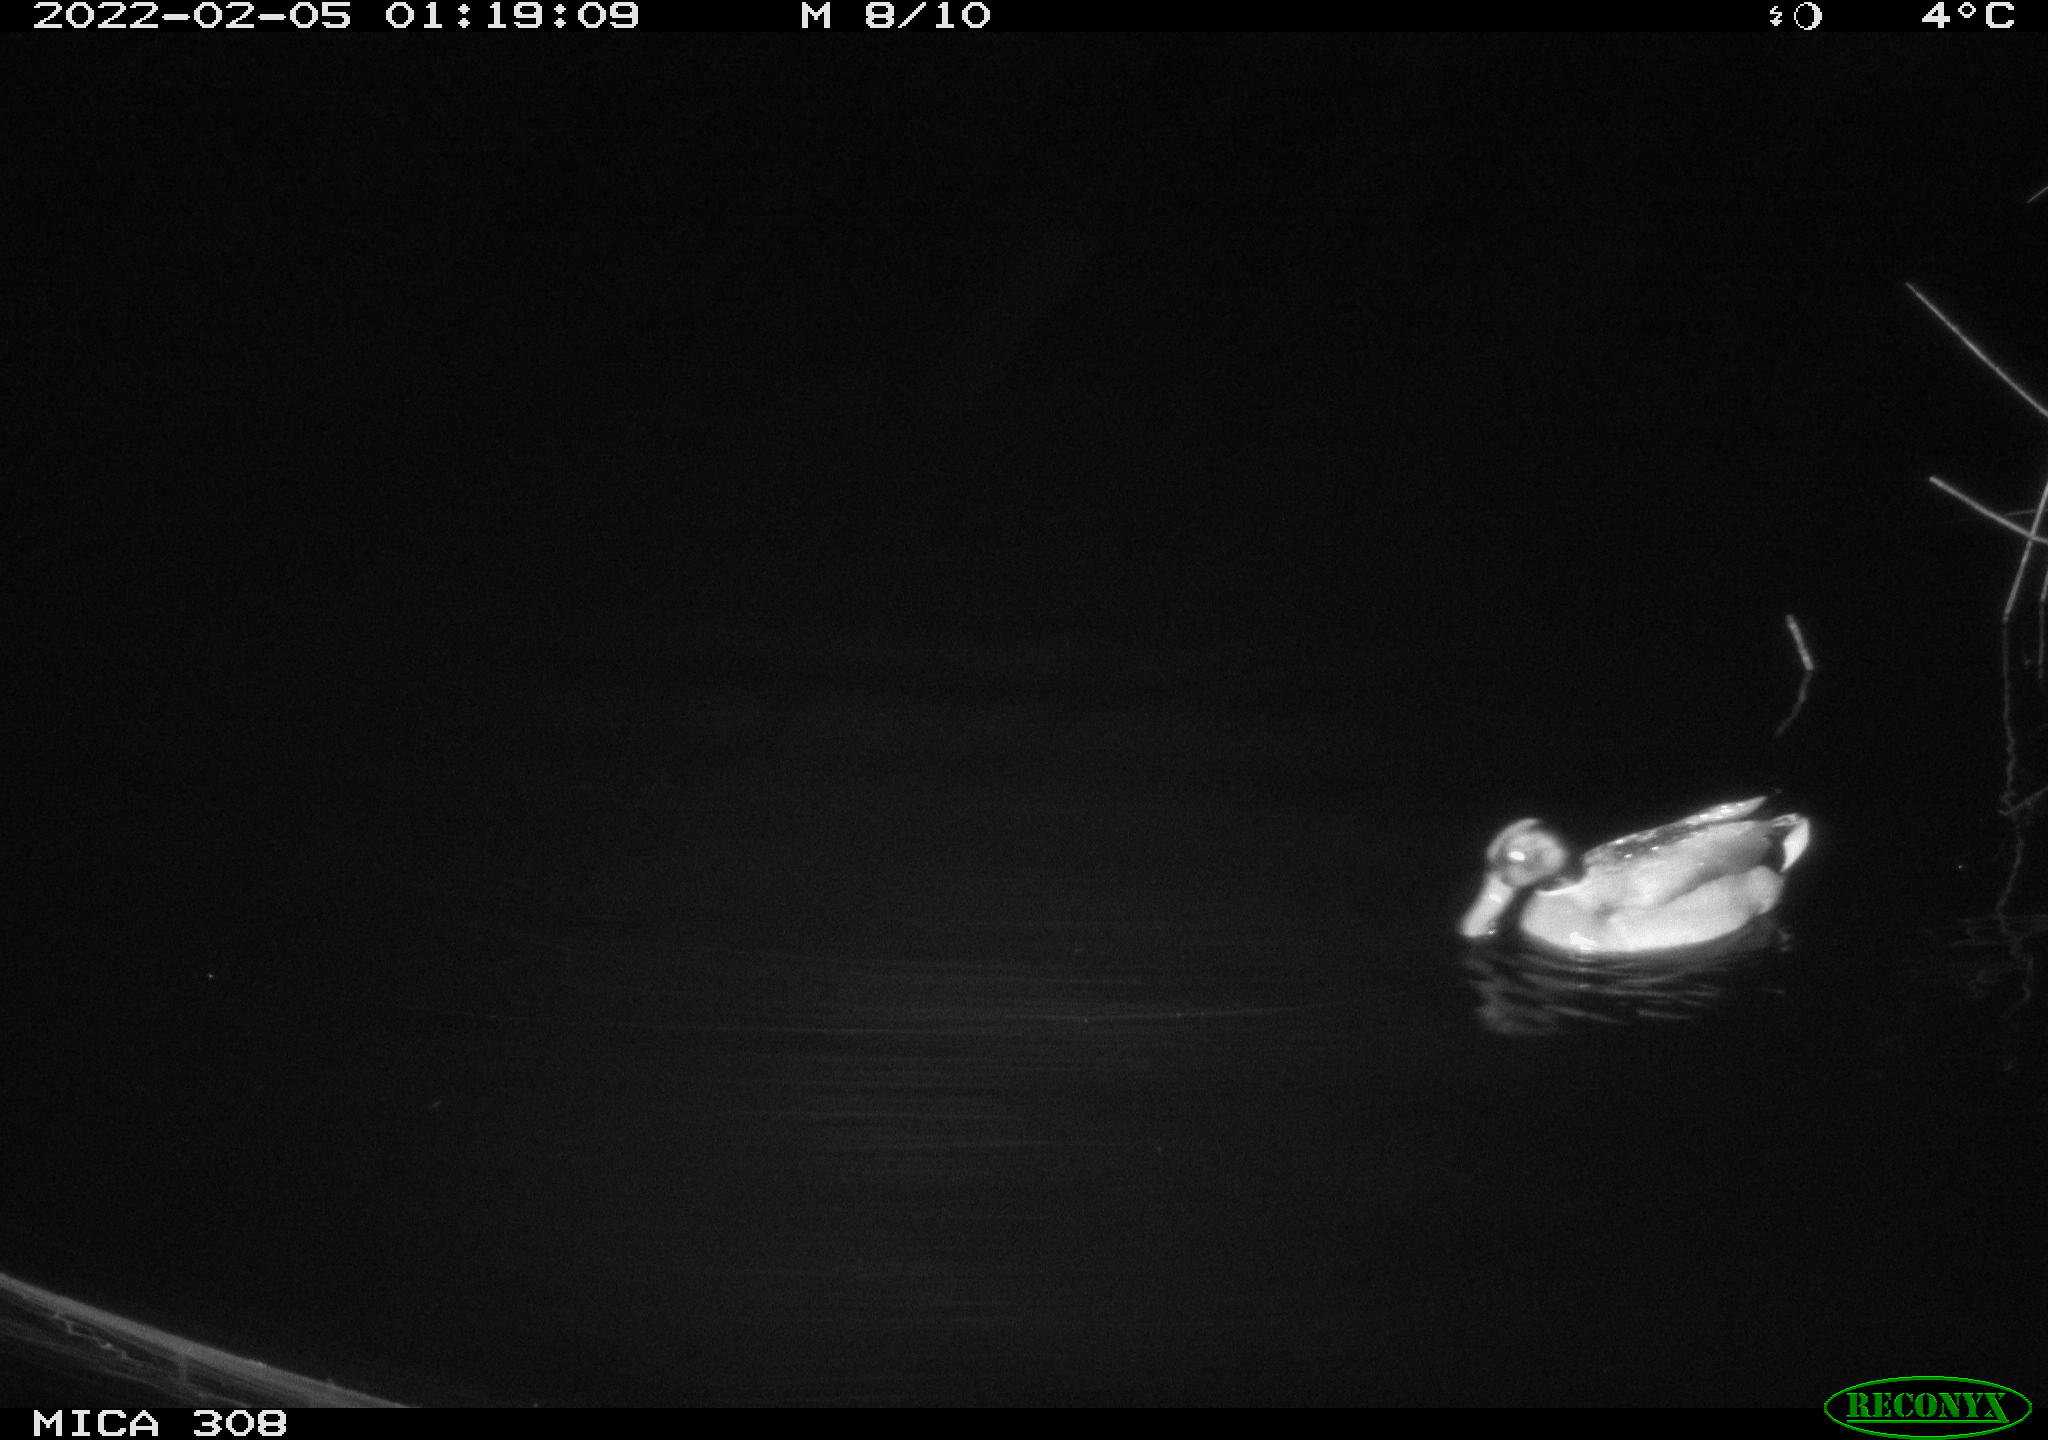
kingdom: Animalia
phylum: Chordata
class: Aves
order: Anseriformes
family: Anatidae
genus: Anas
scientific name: Anas platyrhynchos
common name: Mallard
